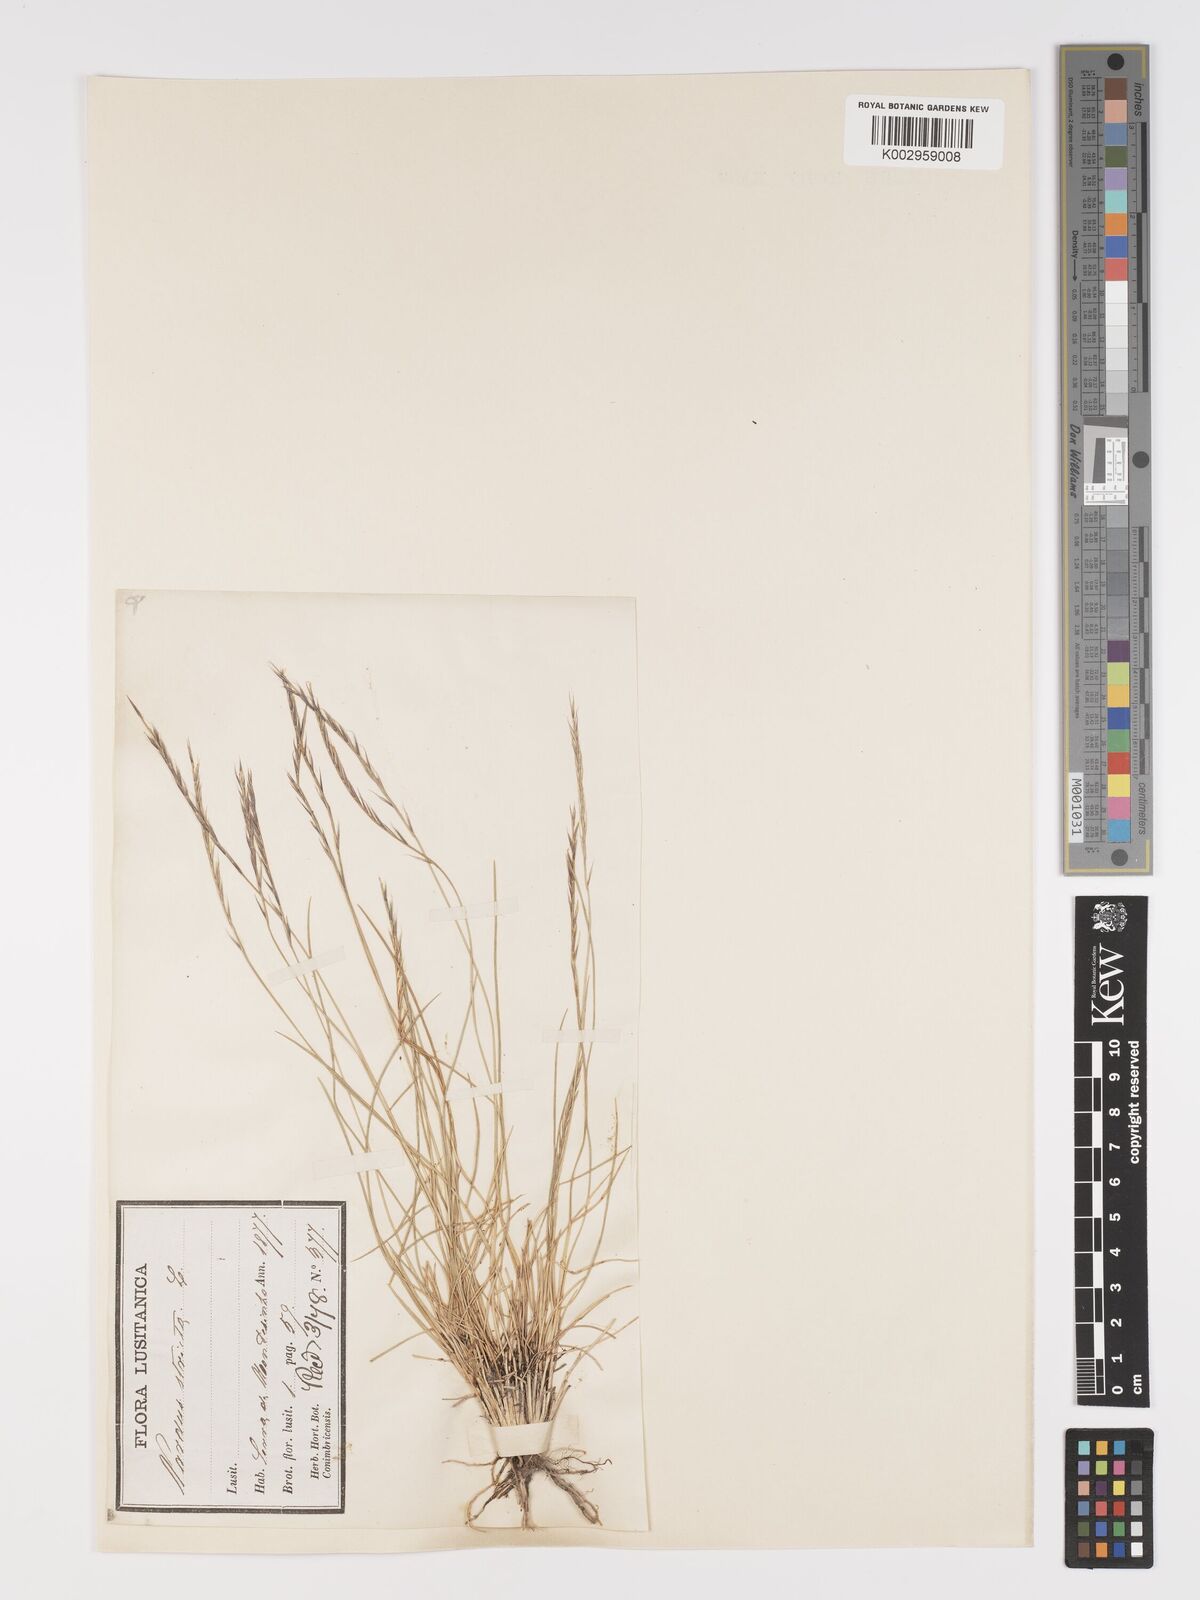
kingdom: Plantae
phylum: Tracheophyta
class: Liliopsida
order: Poales
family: Poaceae
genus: Nardus
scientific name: Nardus stricta
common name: Mat-grass
